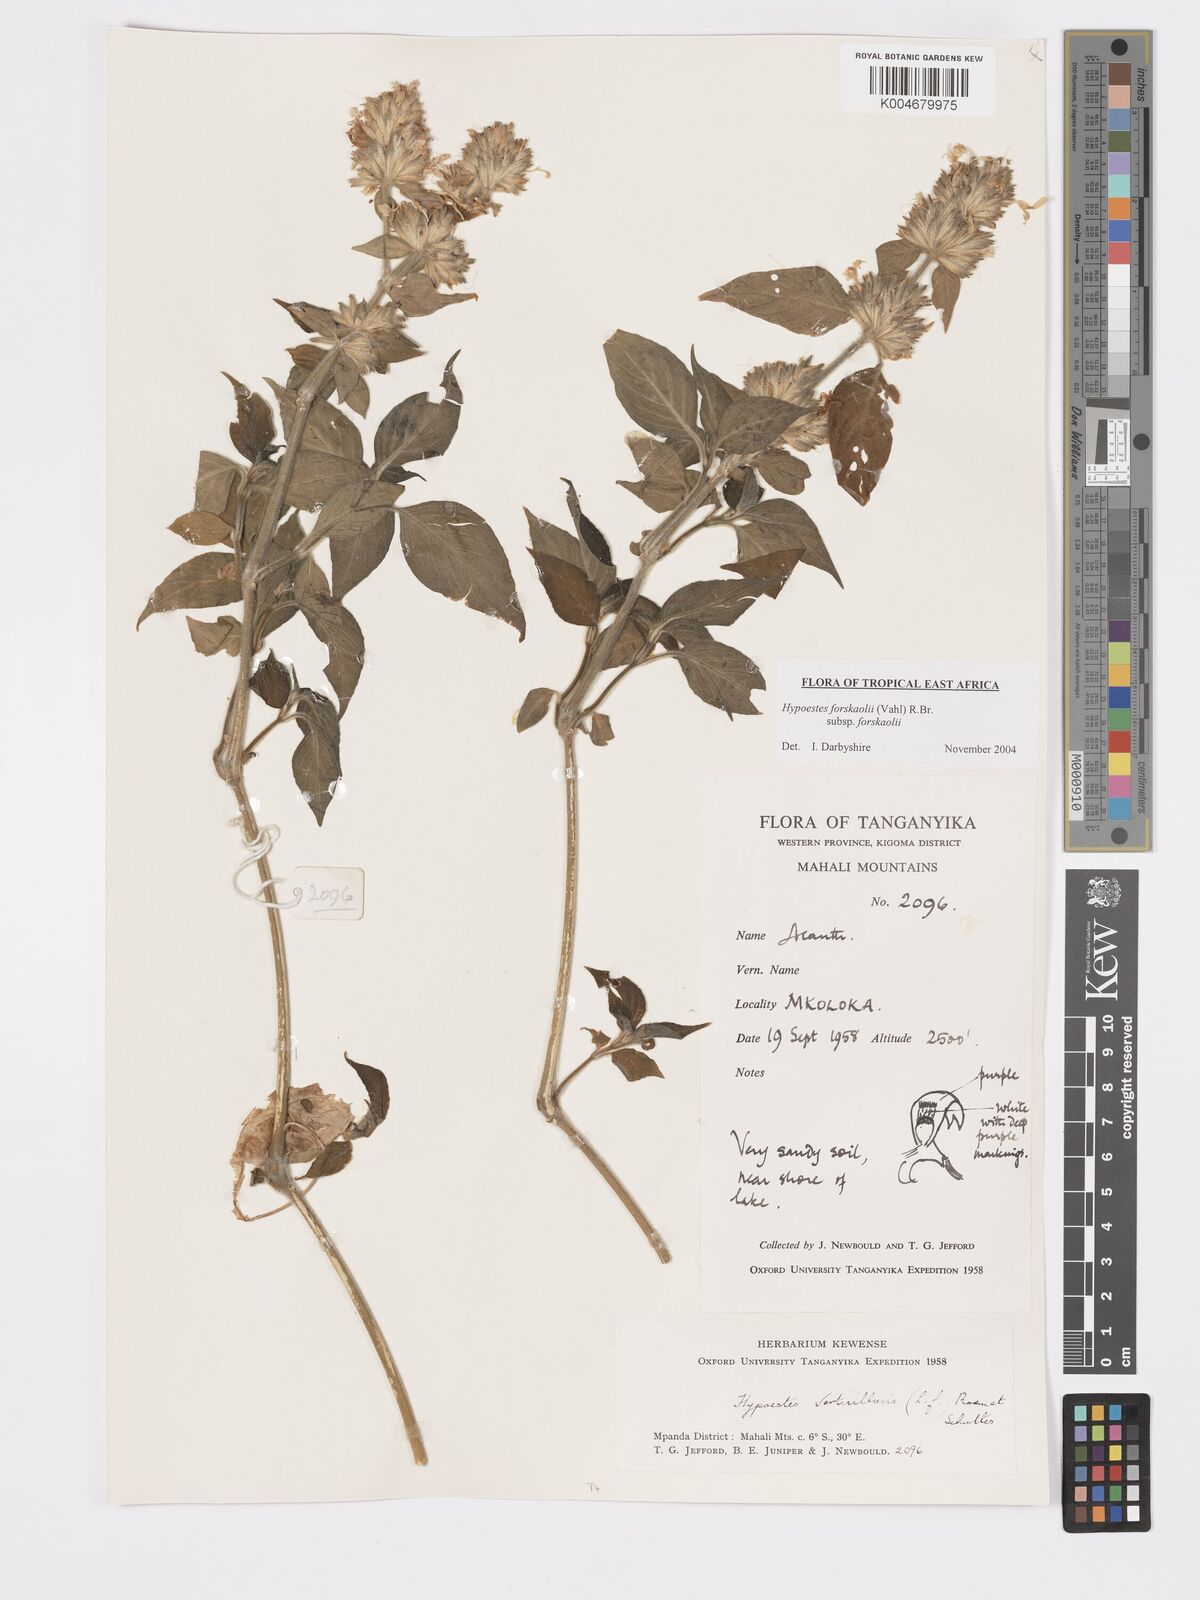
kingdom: Plantae
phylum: Tracheophyta
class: Magnoliopsida
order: Lamiales
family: Acanthaceae
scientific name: Acanthaceae
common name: Acanthaceae
